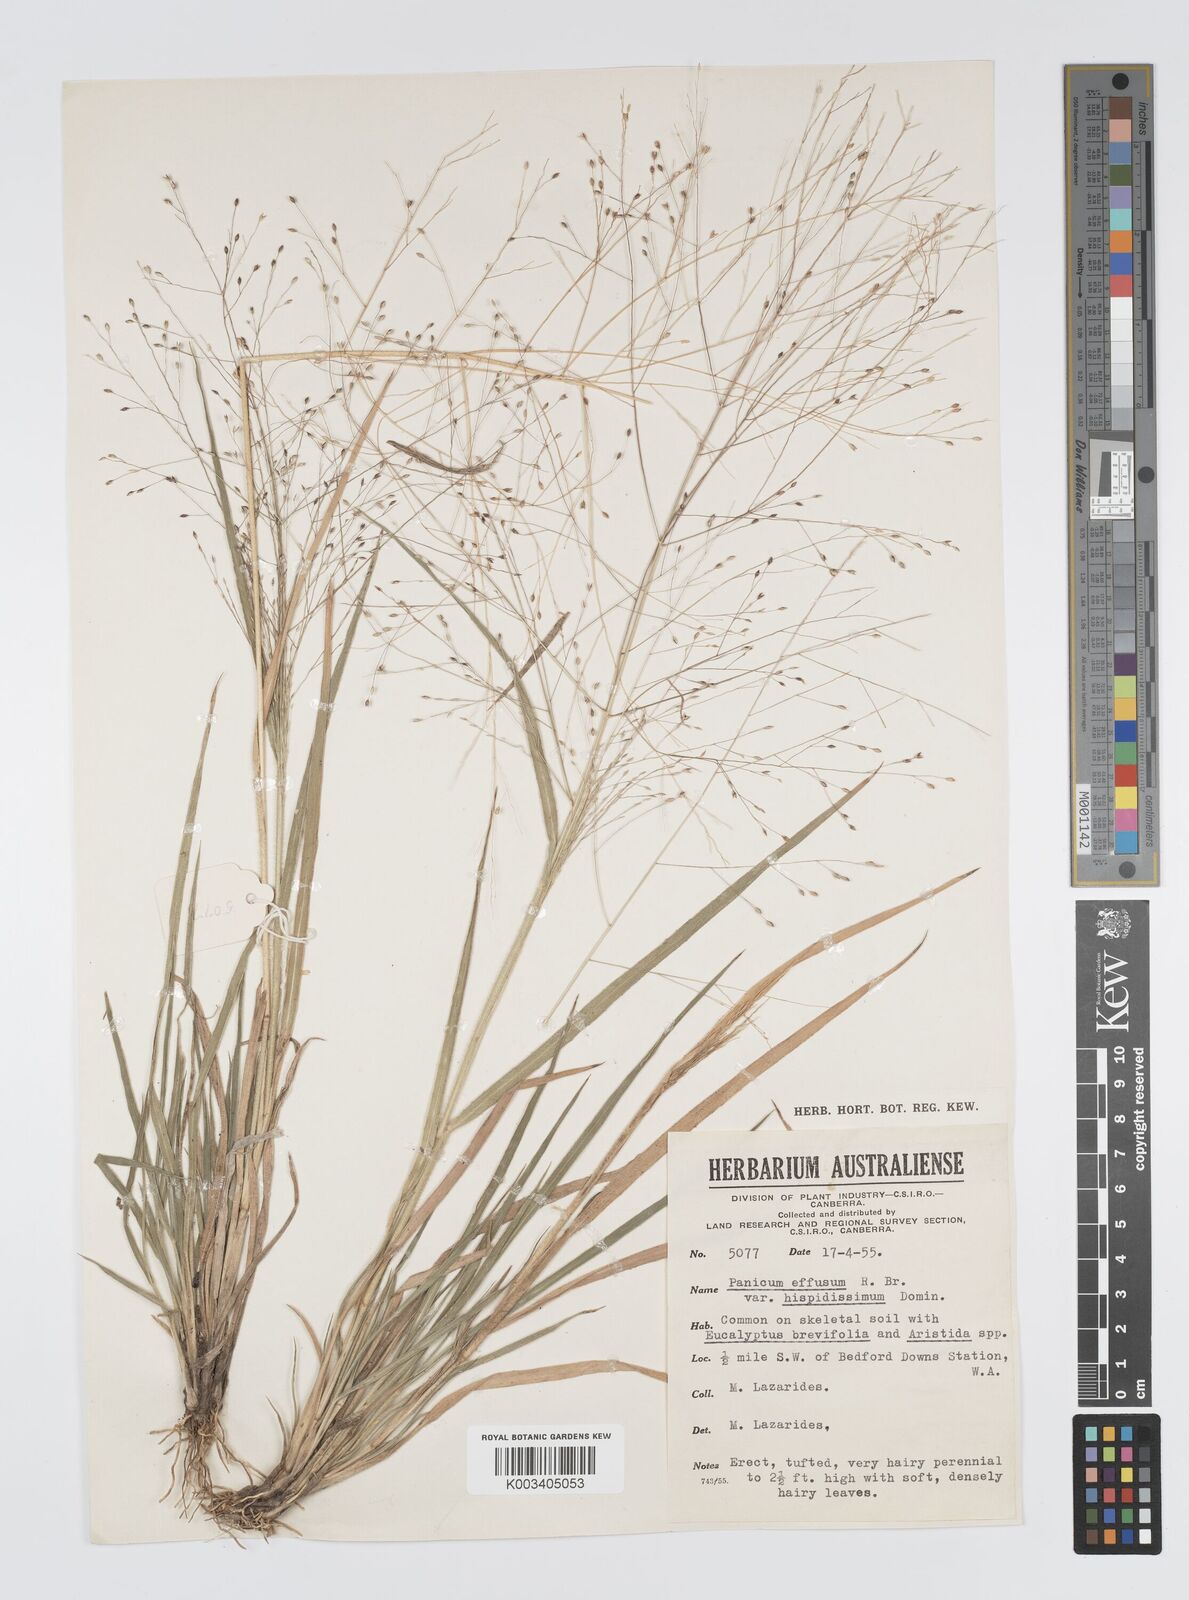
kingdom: Plantae
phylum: Tracheophyta
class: Liliopsida
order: Poales
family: Poaceae
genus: Panicum
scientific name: Panicum effusum
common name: Hairy panic grass
